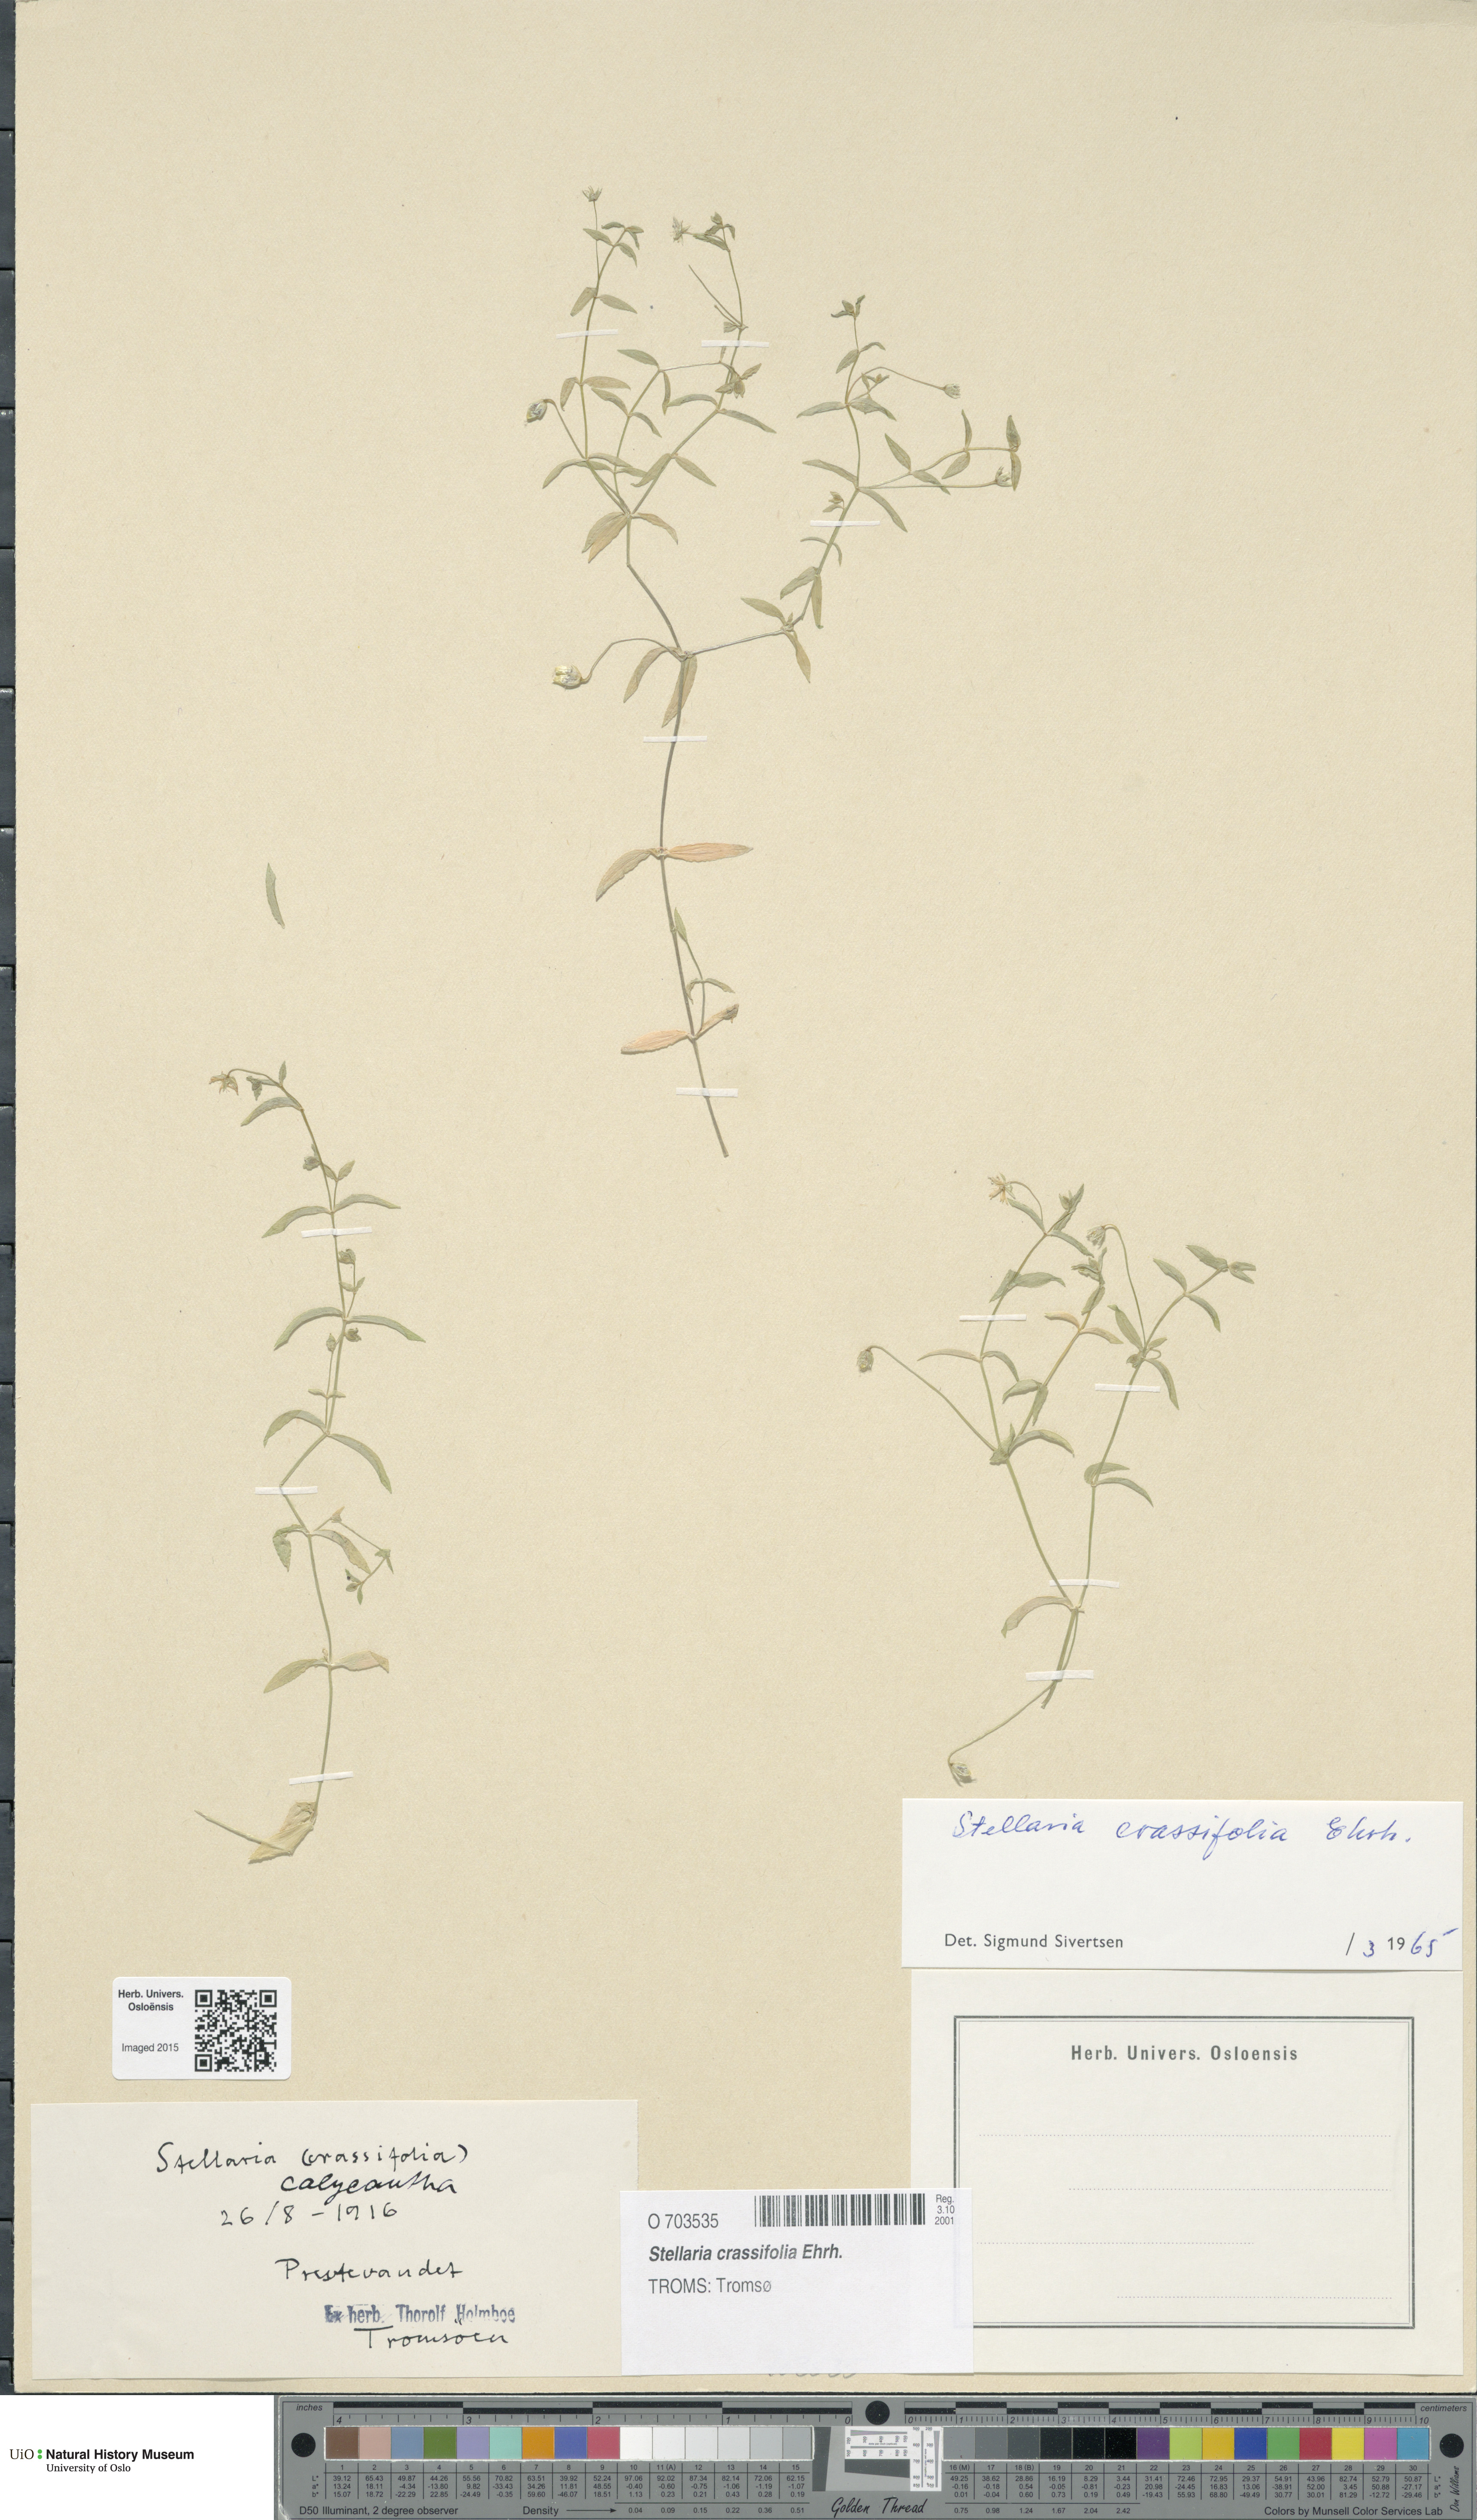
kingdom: Plantae
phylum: Tracheophyta
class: Magnoliopsida
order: Caryophyllales
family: Caryophyllaceae
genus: Stellaria
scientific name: Stellaria crassifolia
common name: Fleshy starwort
